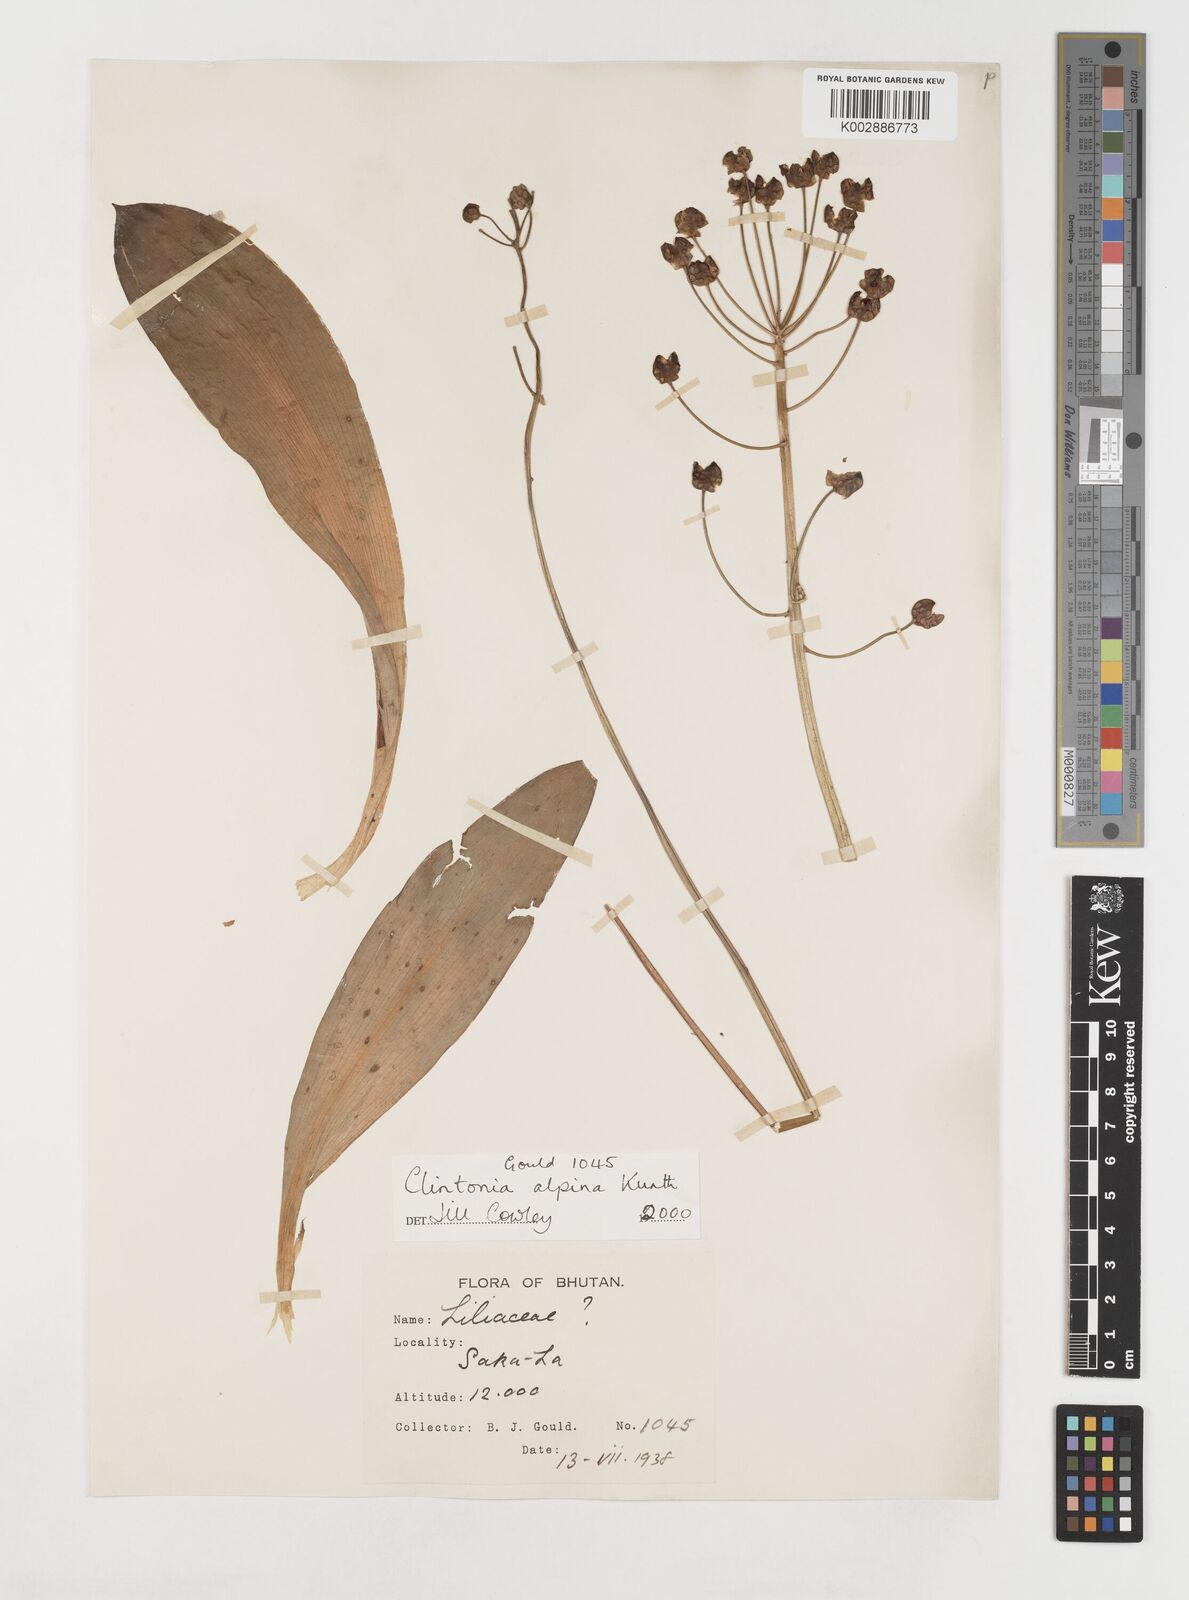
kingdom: Plantae
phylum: Tracheophyta
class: Liliopsida
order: Liliales
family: Liliaceae
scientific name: Liliaceae
